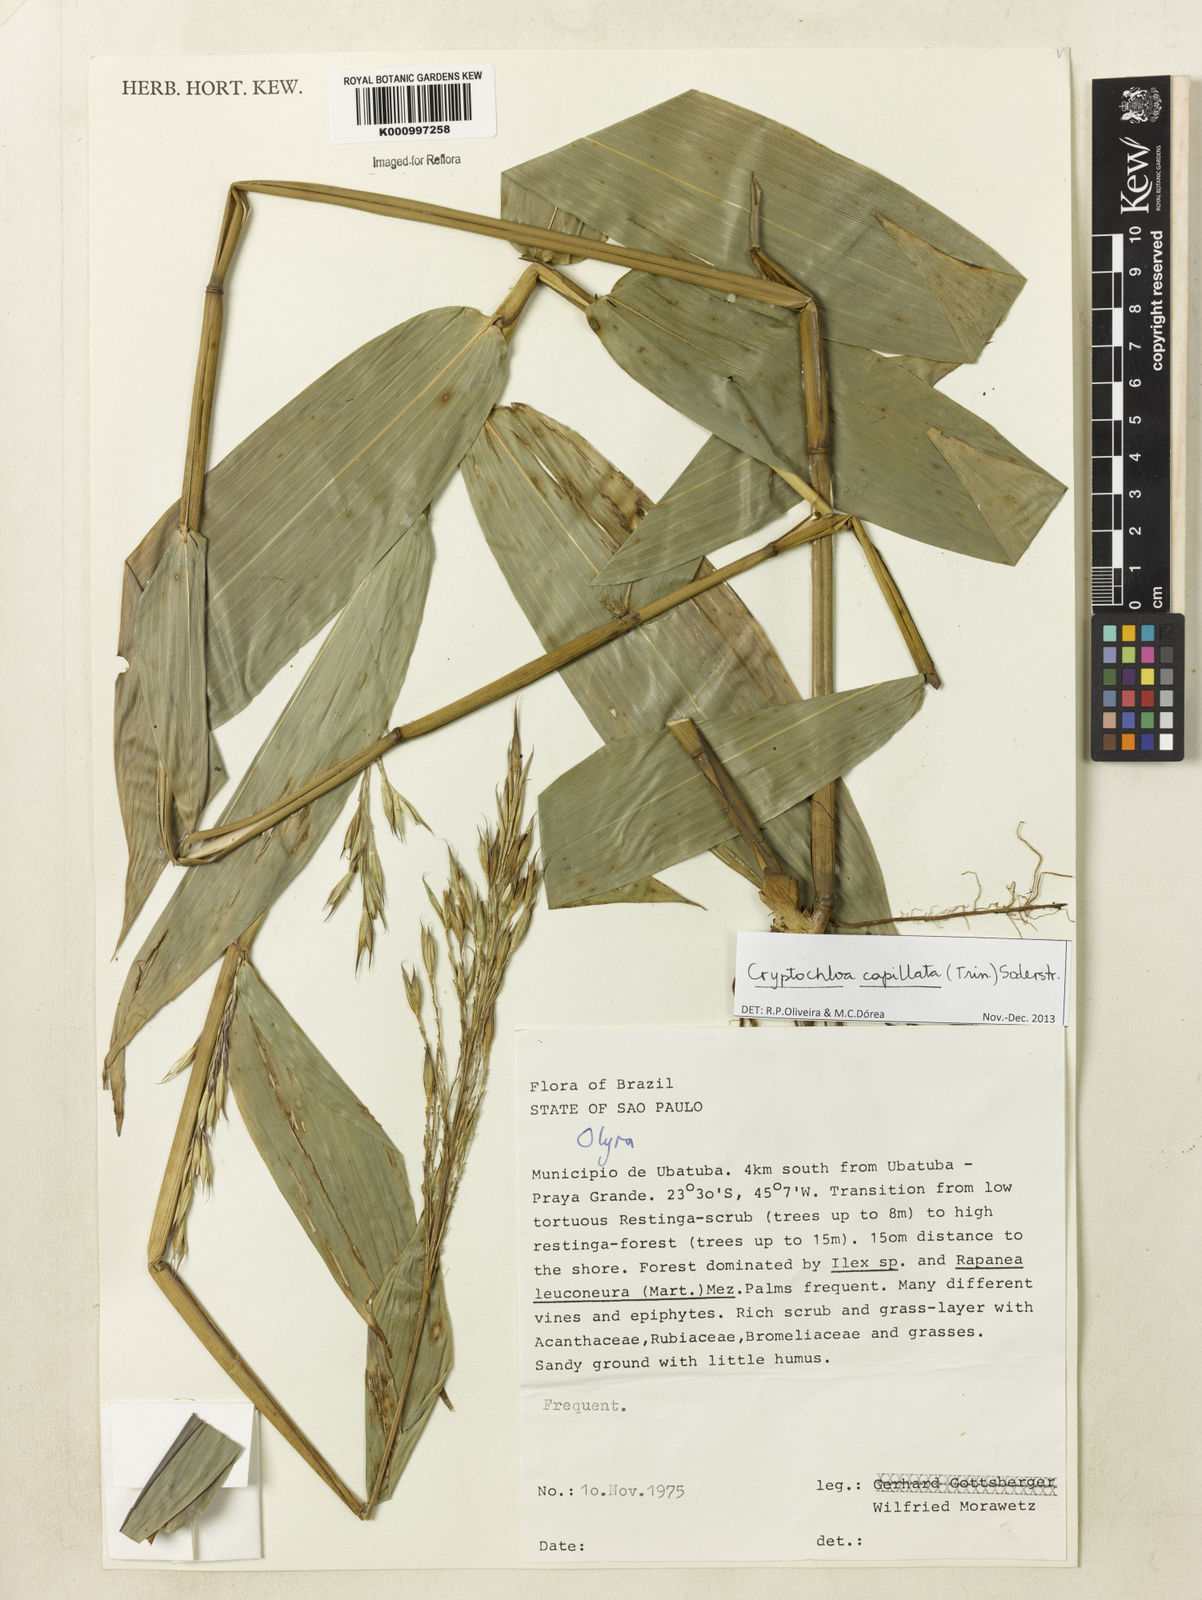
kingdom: Plantae
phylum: Tracheophyta
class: Liliopsida
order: Poales
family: Poaceae
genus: Cryptochloa
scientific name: Cryptochloa capillata
